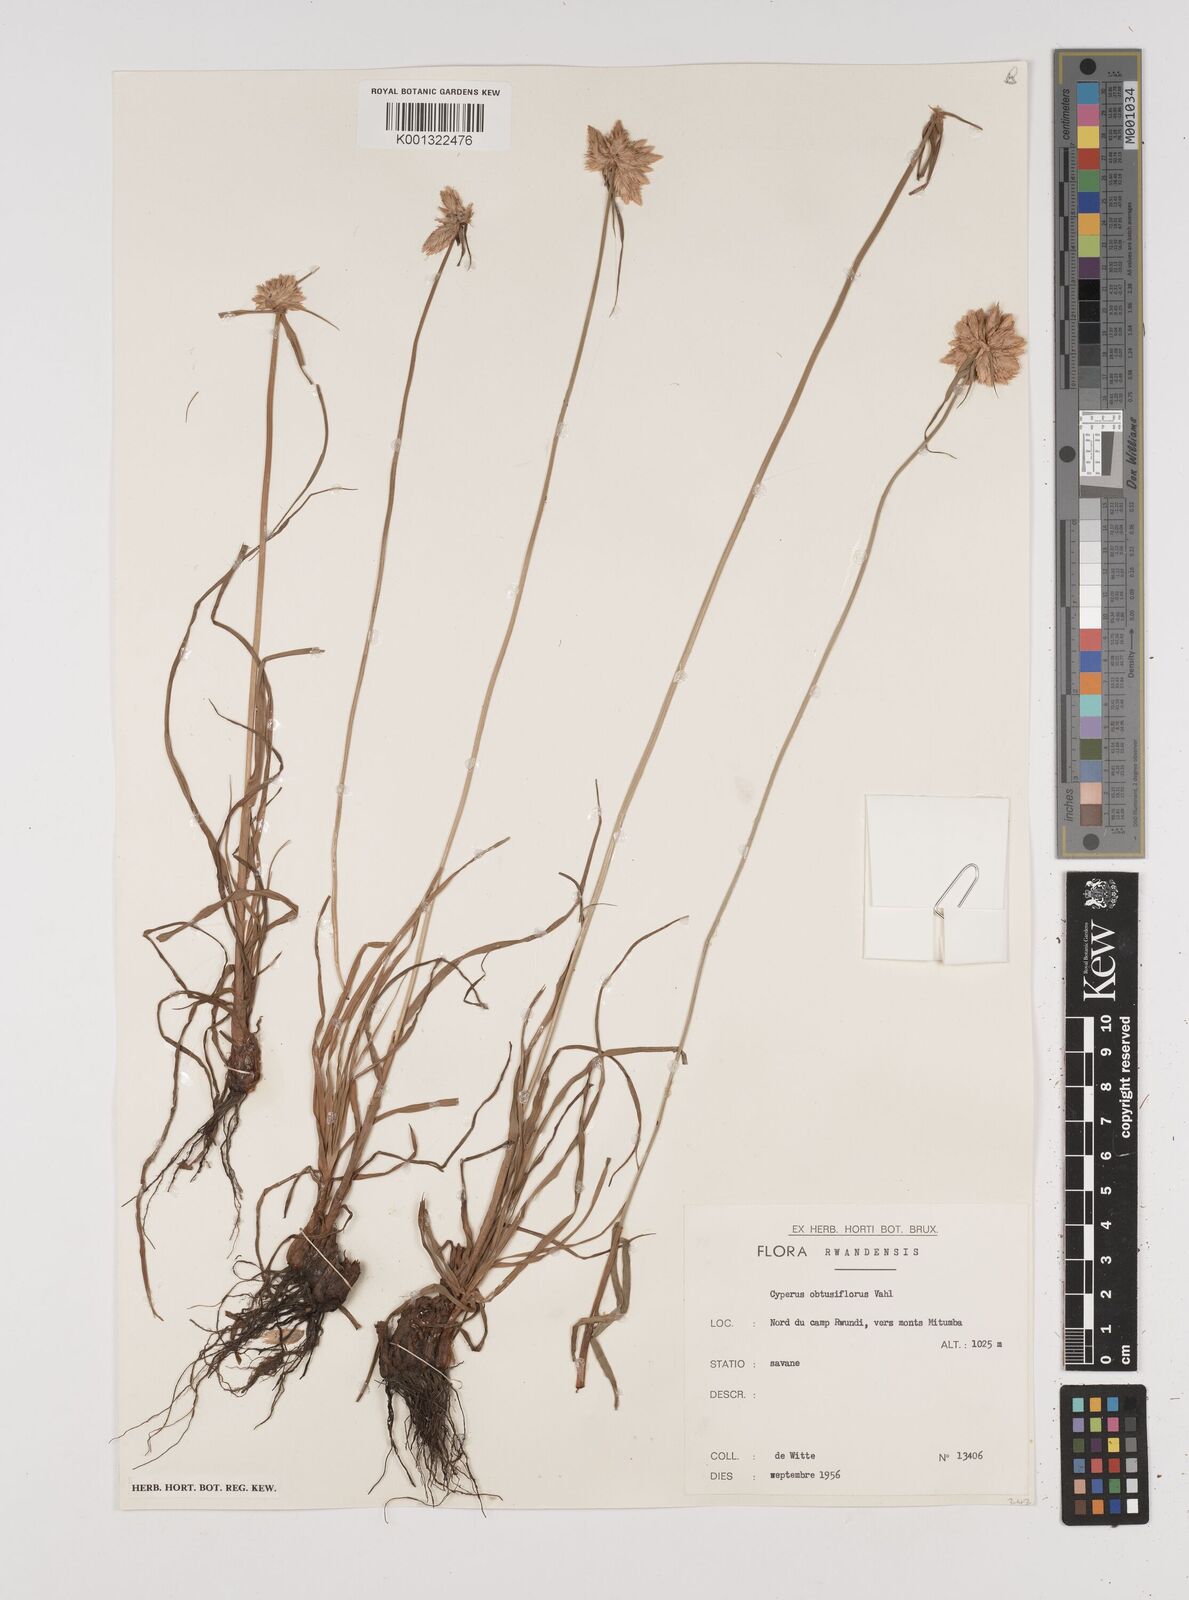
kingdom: Plantae
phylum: Tracheophyta
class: Liliopsida
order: Poales
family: Cyperaceae
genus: Cyperus
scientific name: Cyperus niveus
